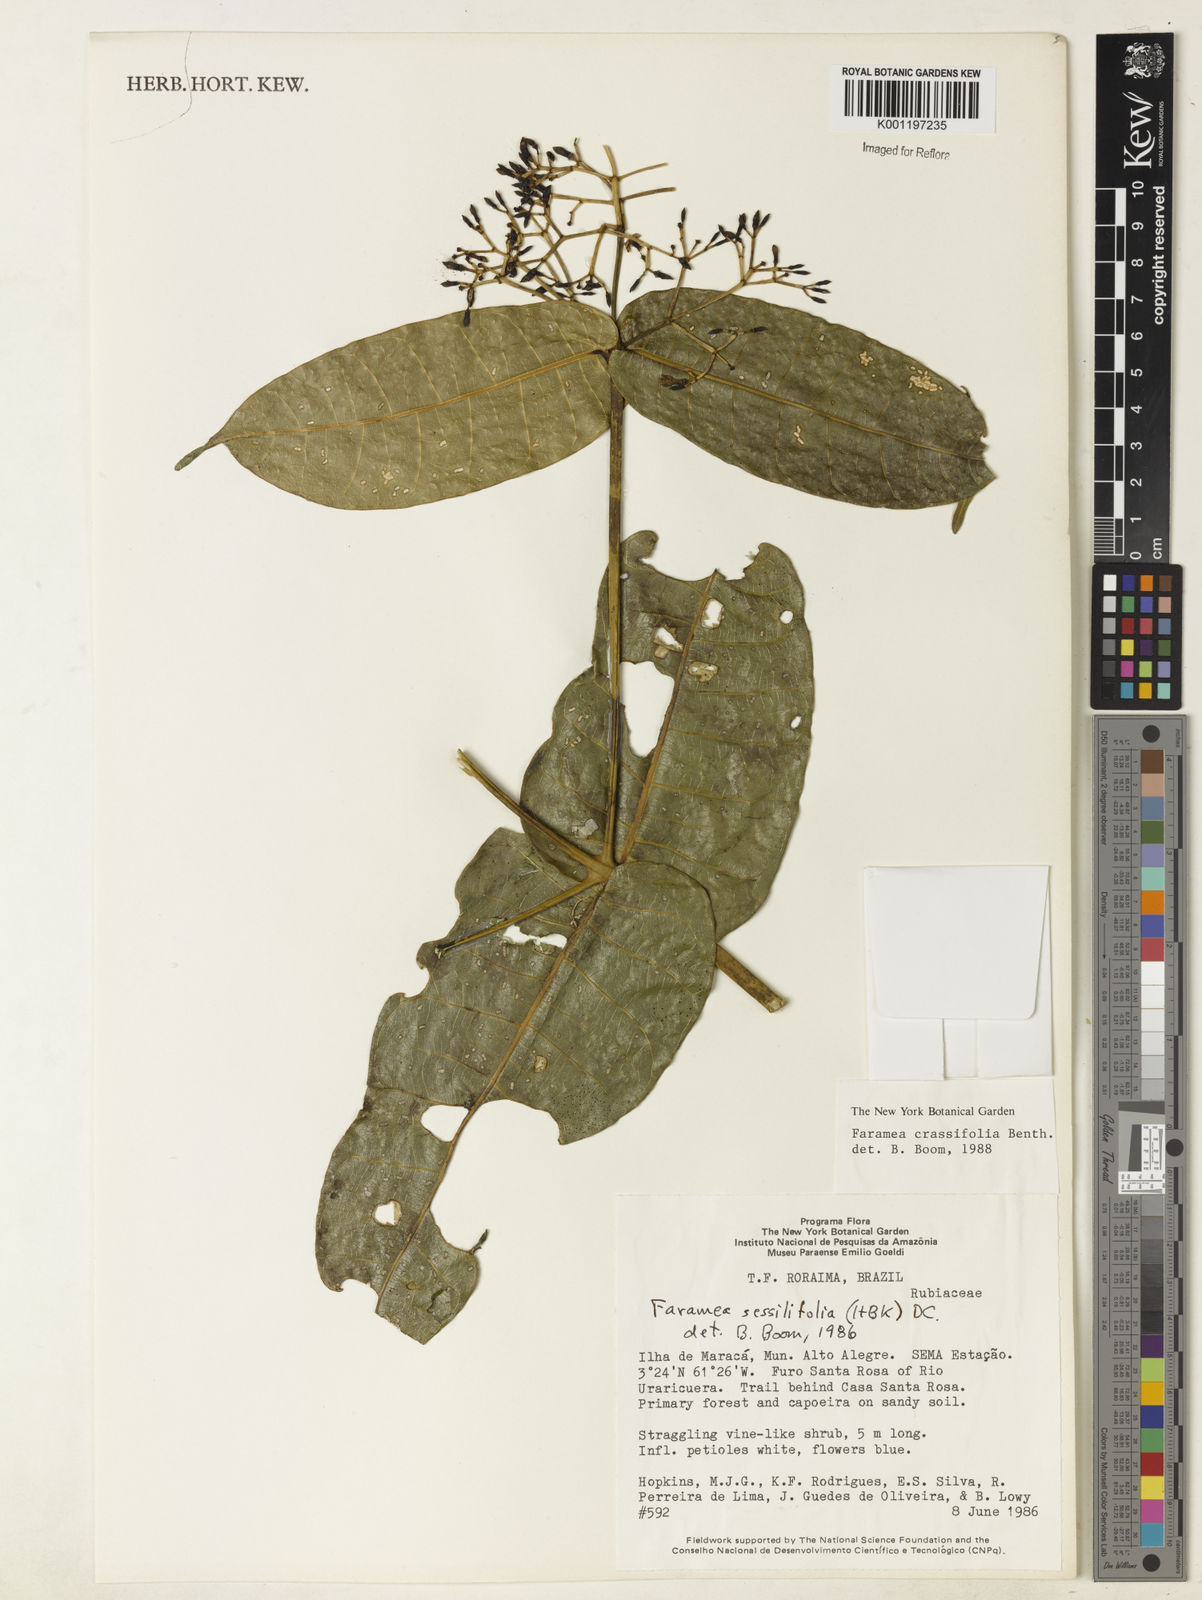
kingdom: Plantae
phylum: Tracheophyta
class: Magnoliopsida
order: Gentianales
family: Rubiaceae
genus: Faramea
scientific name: Faramea sessilifolia
